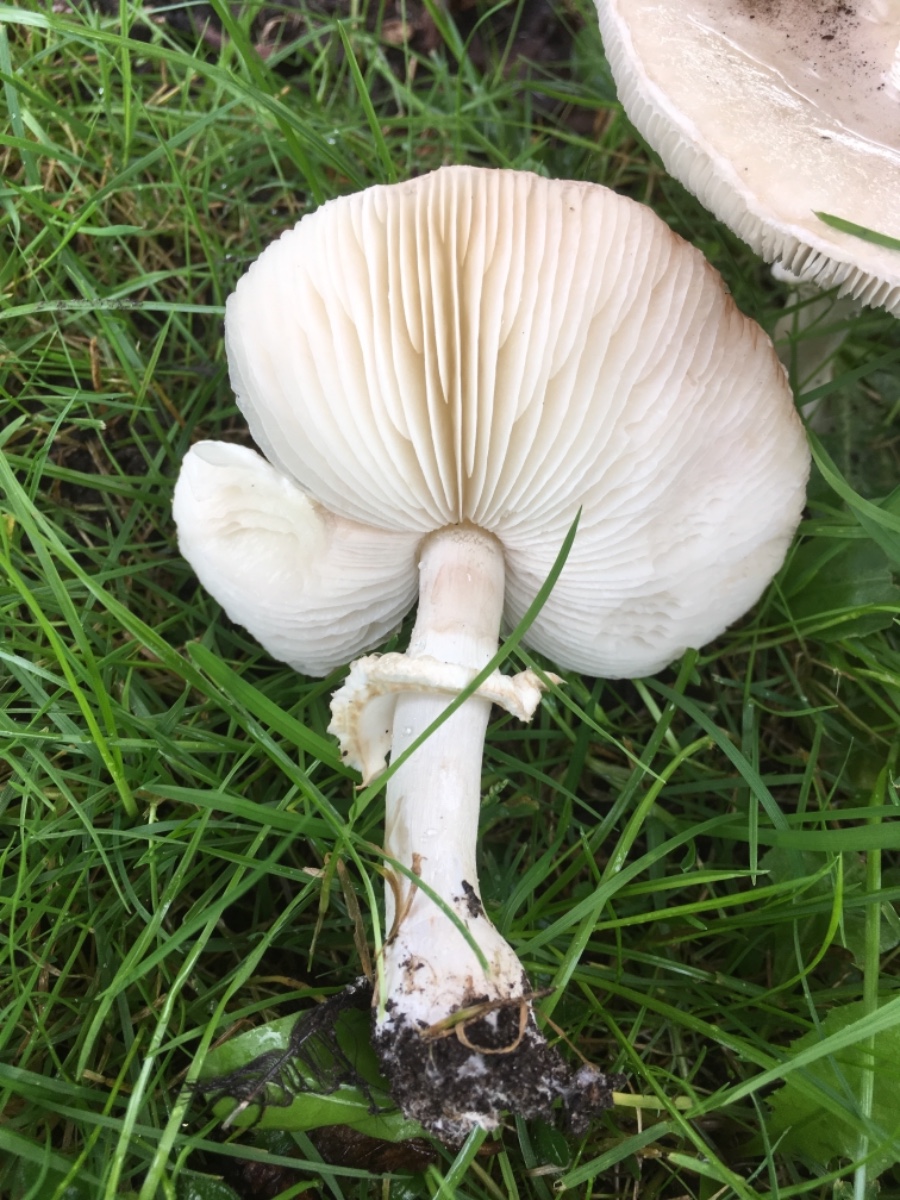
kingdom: Fungi
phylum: Basidiomycota
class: Agaricomycetes
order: Agaricales
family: Agaricaceae
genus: Leucoagaricus
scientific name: Leucoagaricus leucothites
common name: rosabladet silkehat
